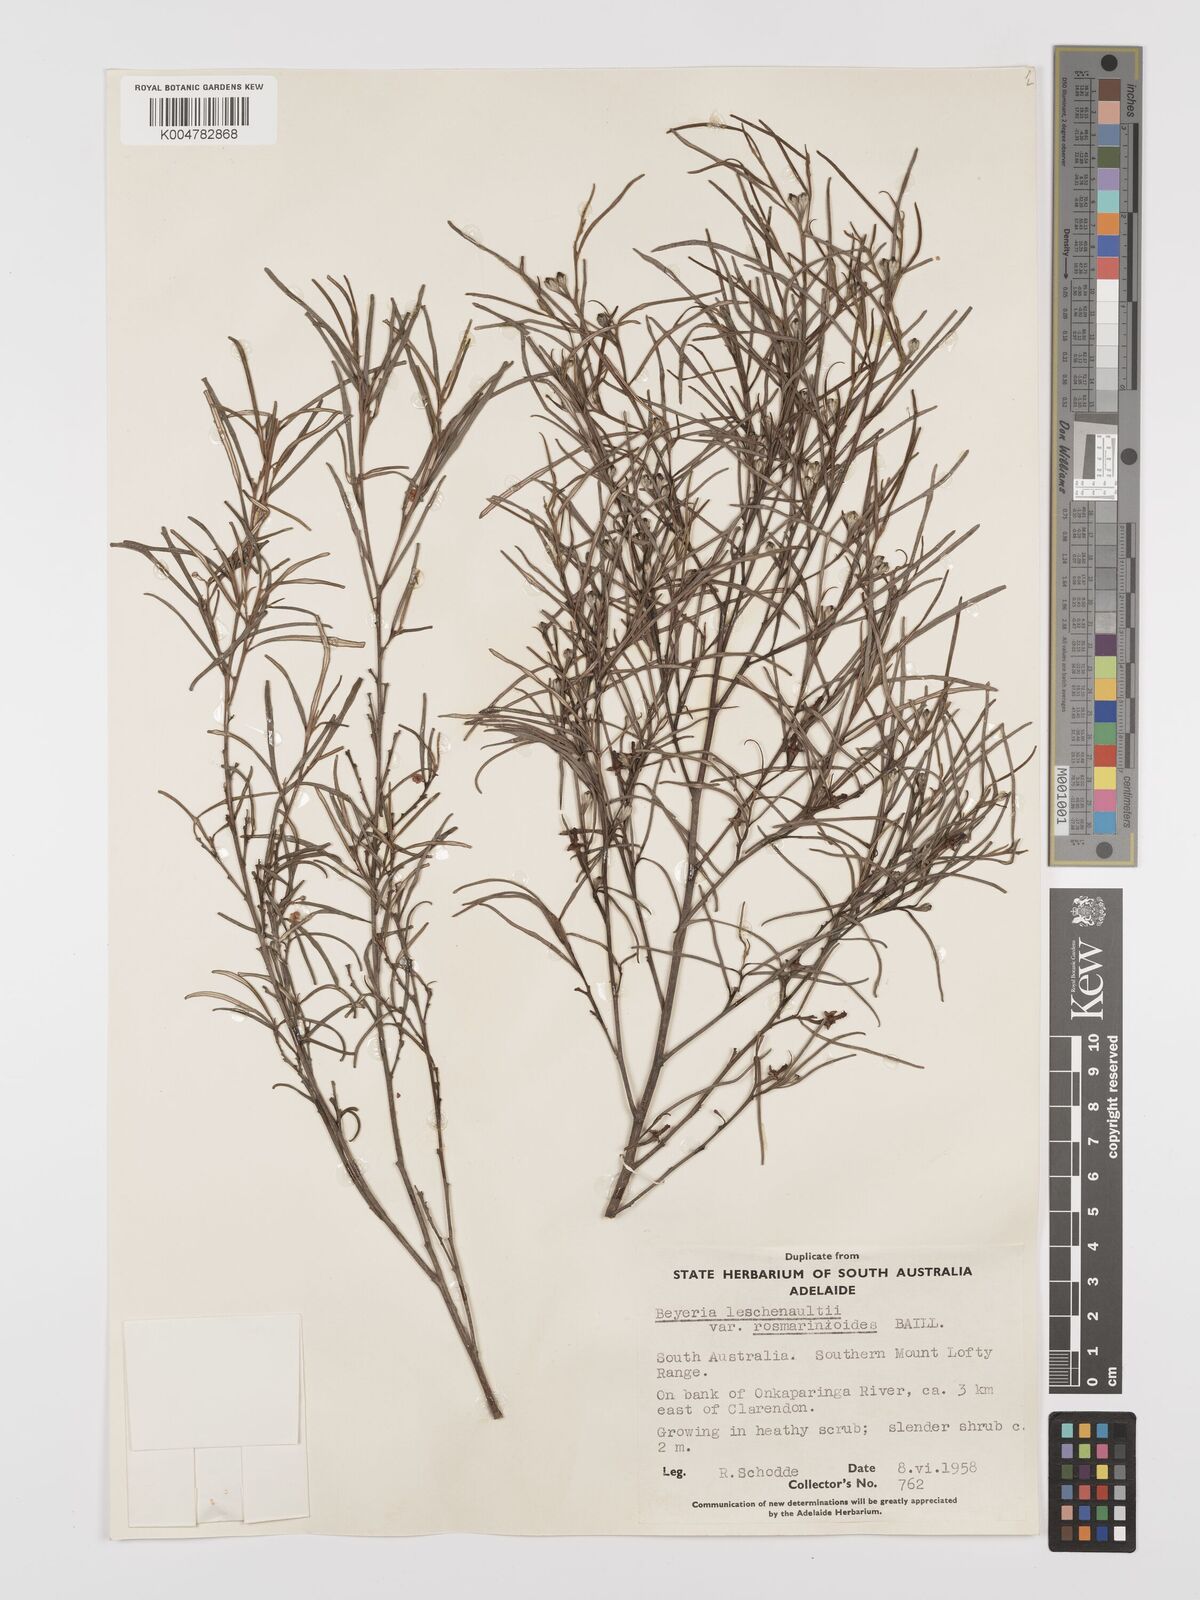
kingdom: Plantae
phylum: Tracheophyta
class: Magnoliopsida
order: Malpighiales
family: Euphorbiaceae
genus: Beyeria
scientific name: Beyeria lechenaultii
